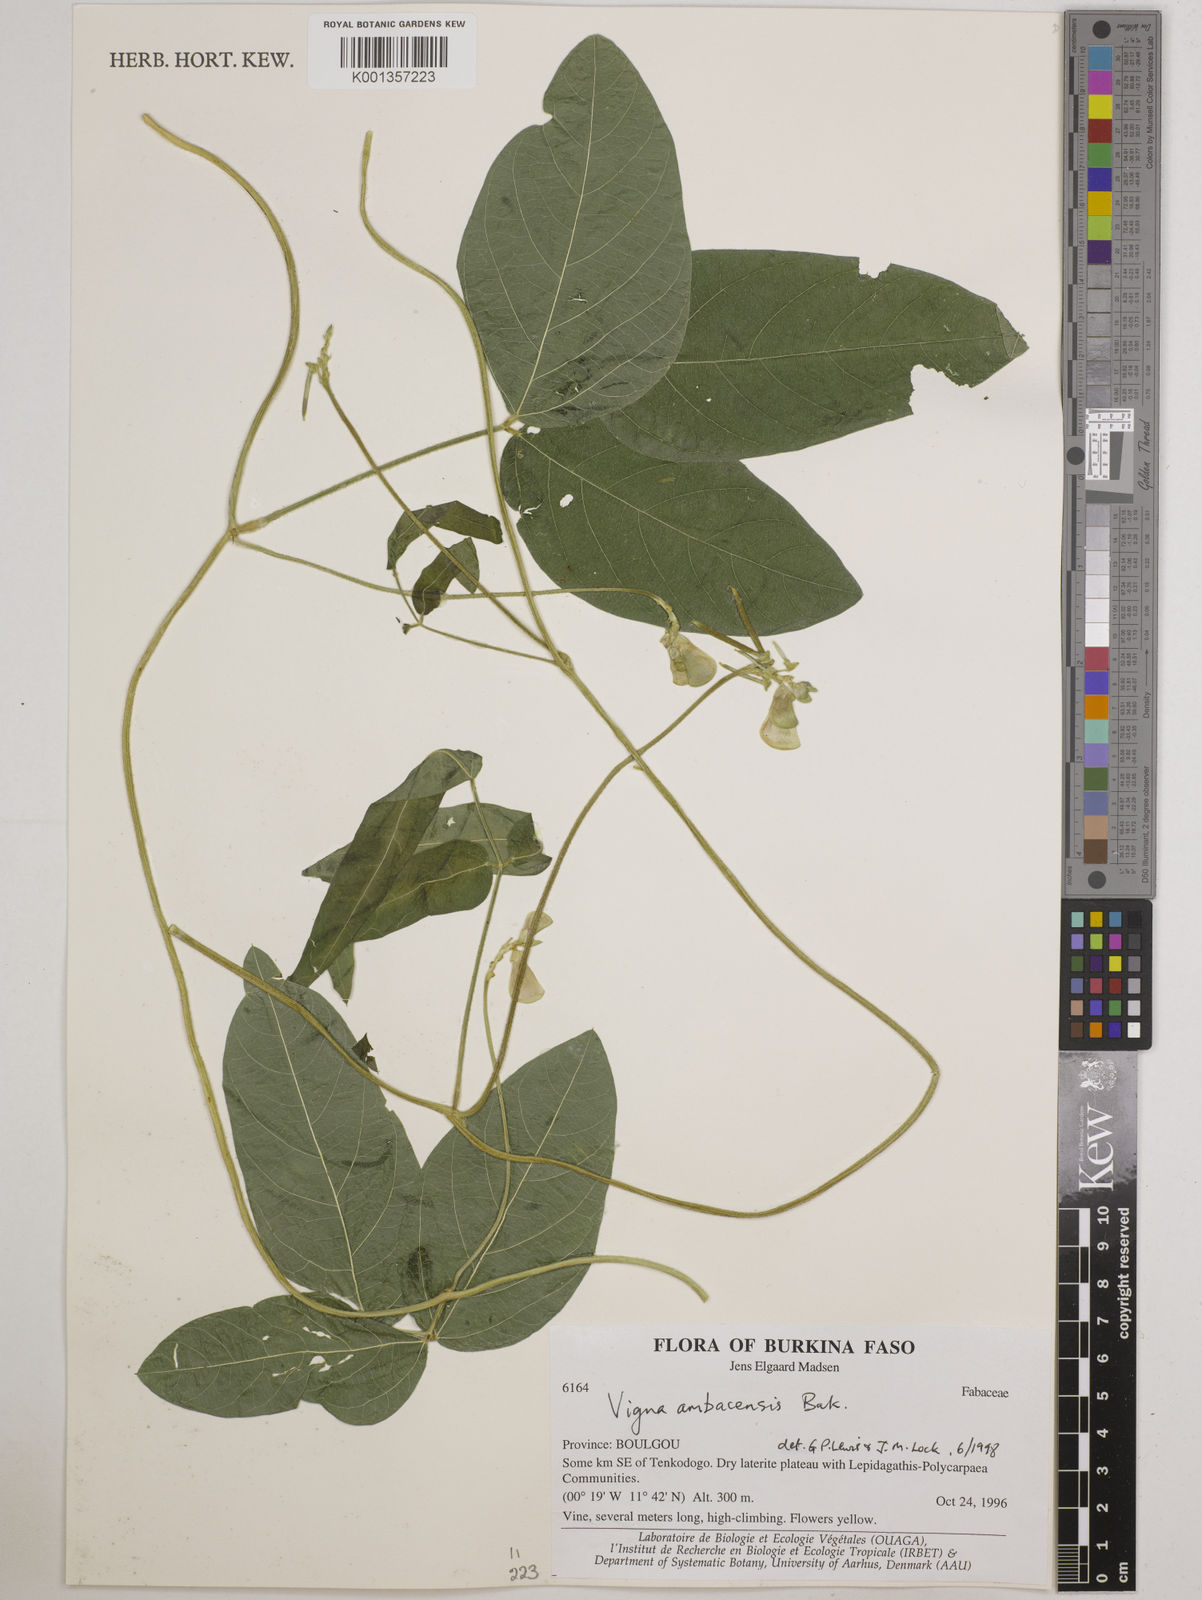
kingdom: Plantae
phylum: Tracheophyta
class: Magnoliopsida
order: Fabales
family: Fabaceae
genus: Vigna
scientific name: Vigna ambacensis
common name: Tsarkiyan zomo
